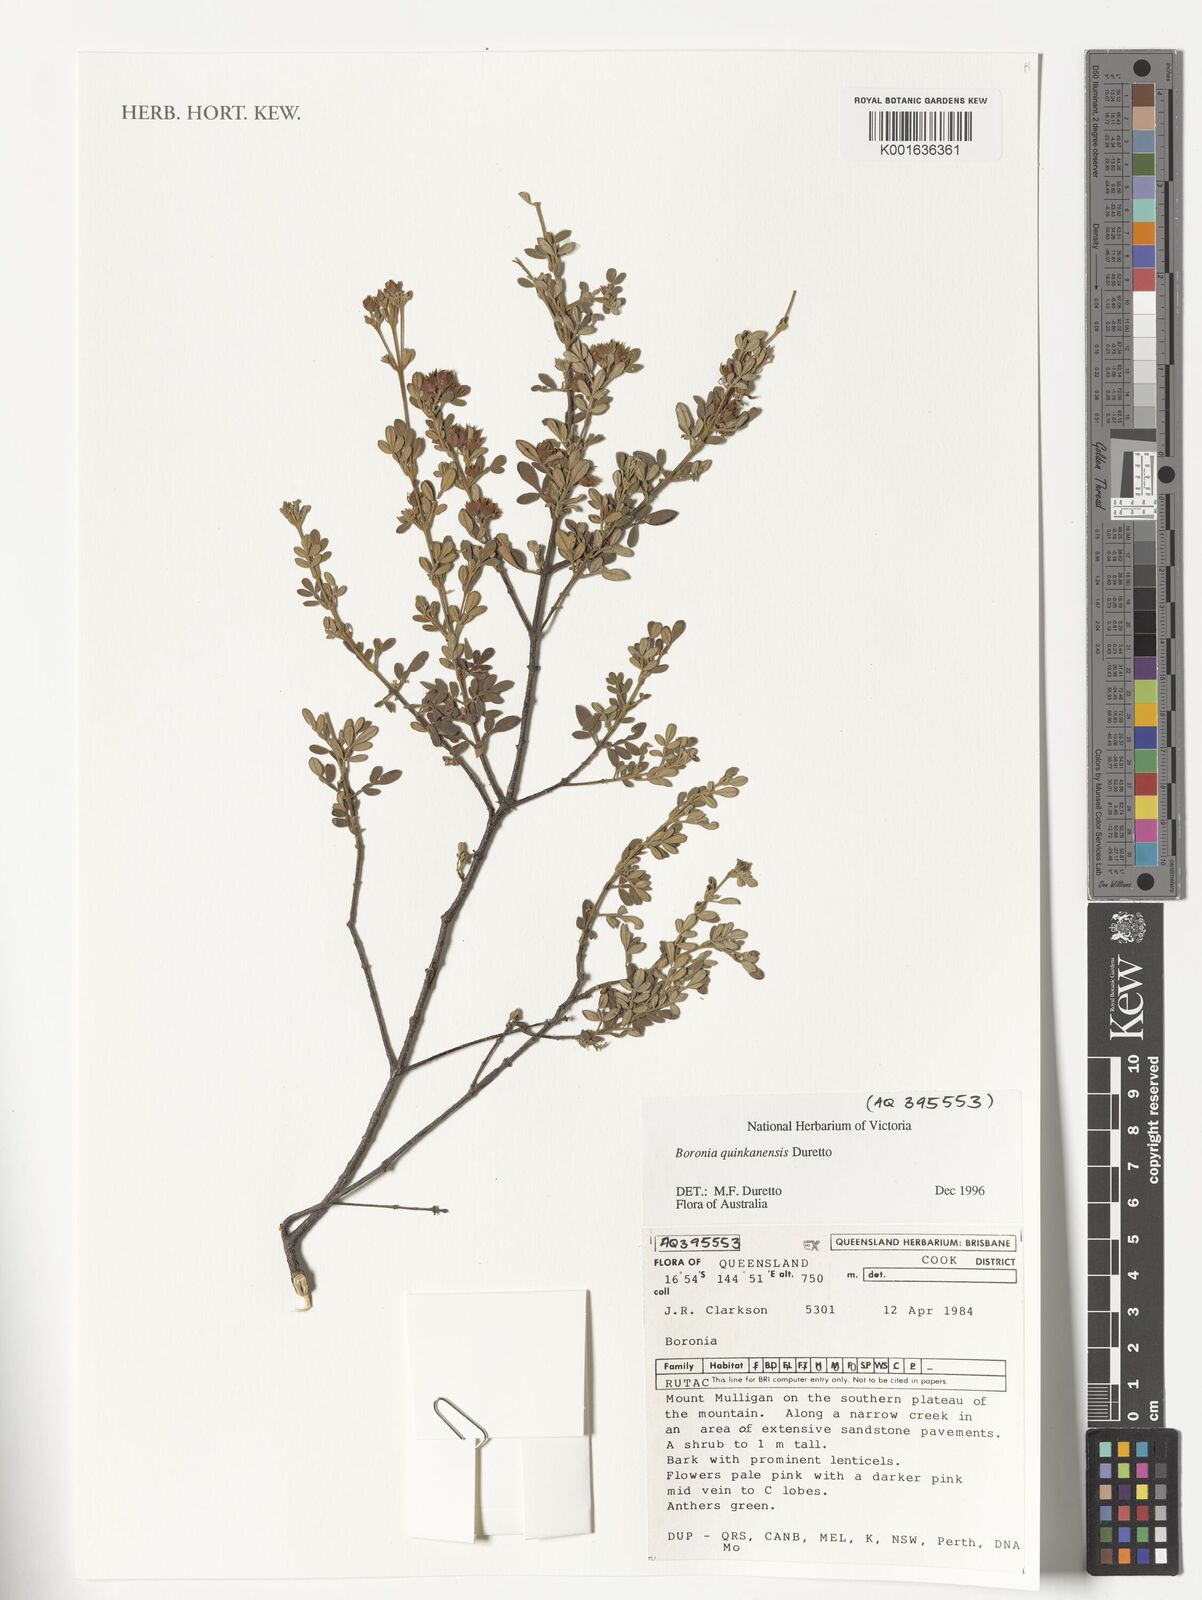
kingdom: Plantae
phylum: Tracheophyta
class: Magnoliopsida
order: Sapindales
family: Rutaceae
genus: Boronia
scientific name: Boronia quinkanensis
